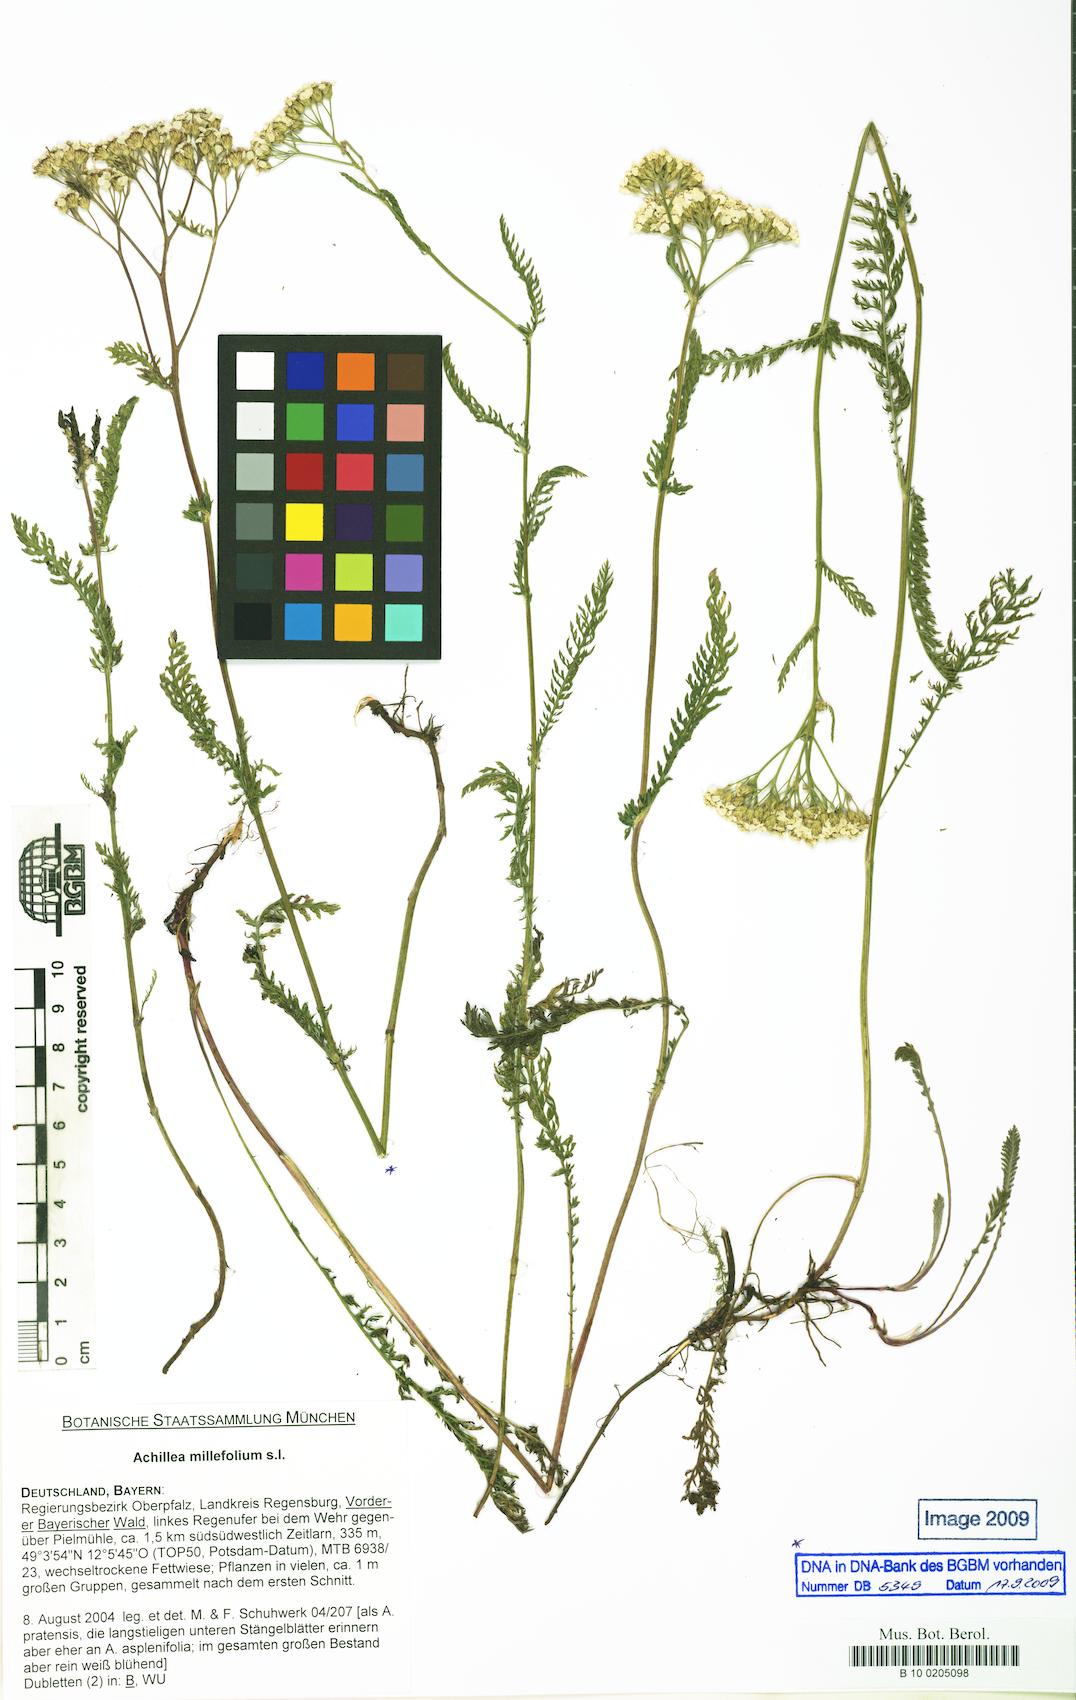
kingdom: Plantae
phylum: Tracheophyta
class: Magnoliopsida
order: Asterales
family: Asteraceae
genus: Achillea
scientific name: Achillea millefolium
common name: Yarrow
